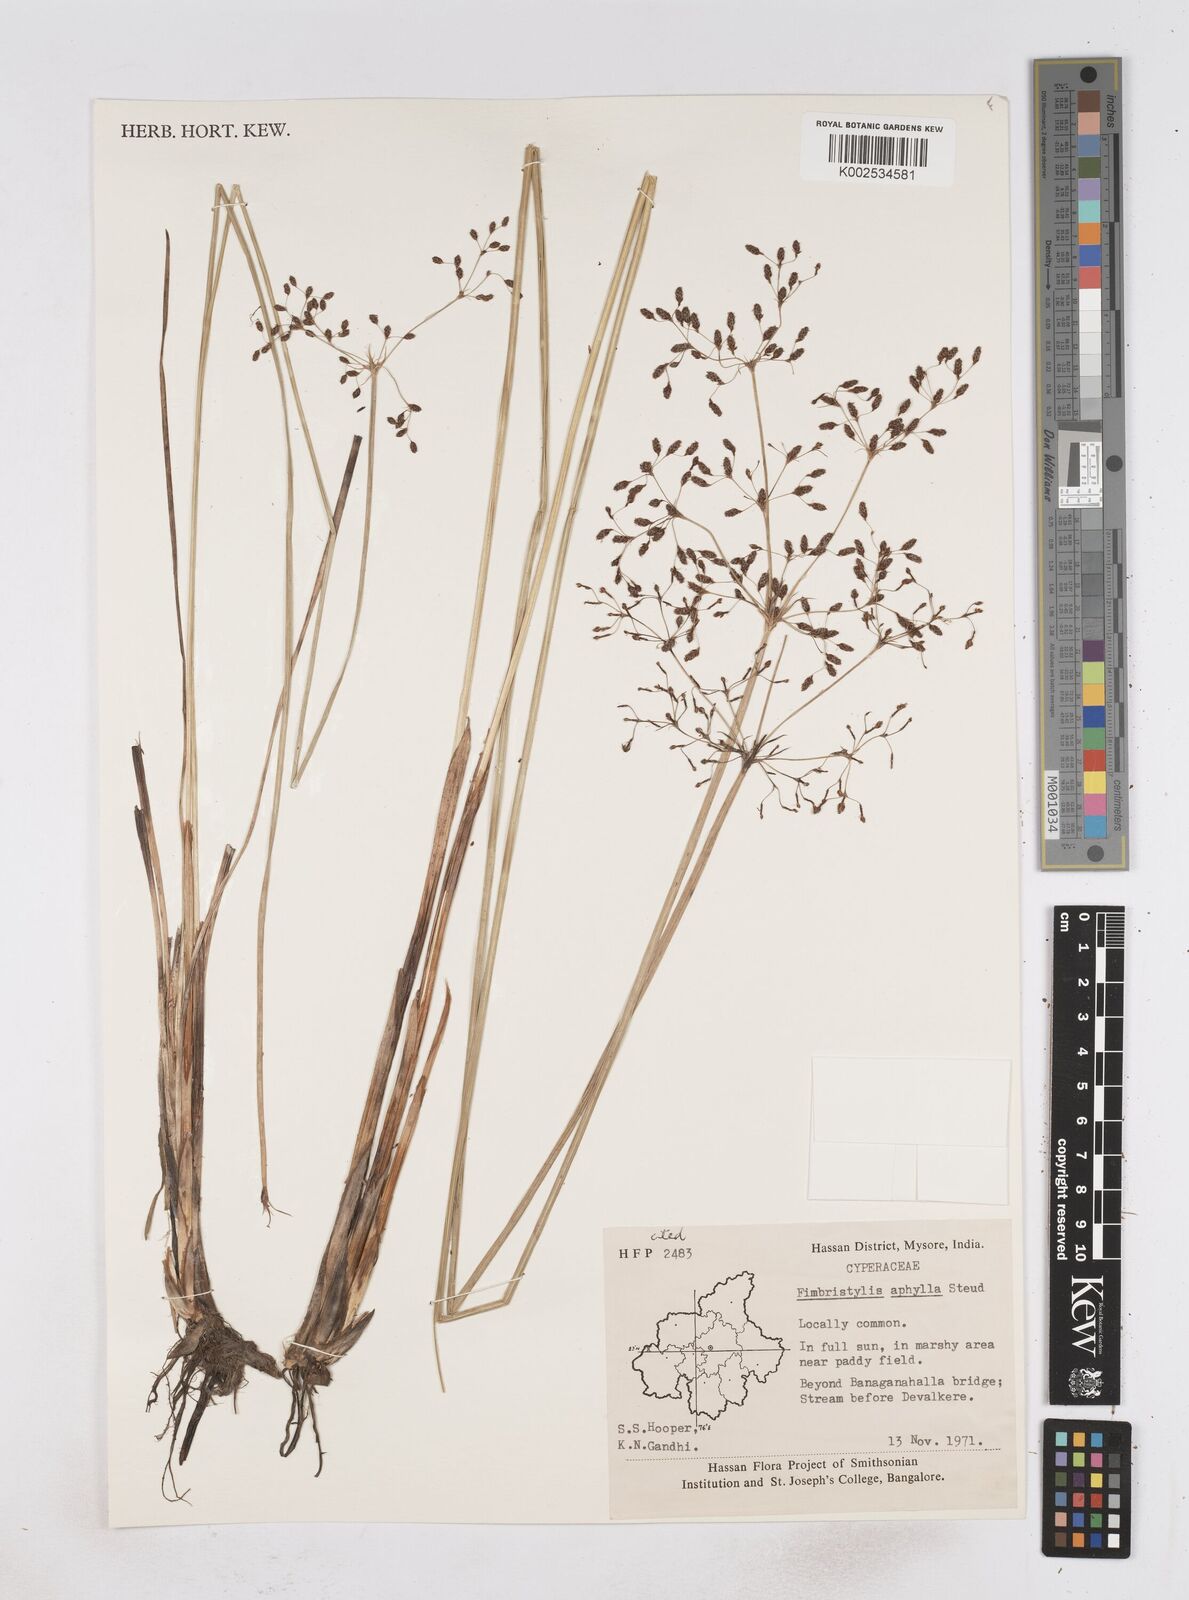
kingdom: Plantae
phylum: Tracheophyta
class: Liliopsida
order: Poales
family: Cyperaceae
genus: Fimbristylis
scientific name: Fimbristylis aphylla
